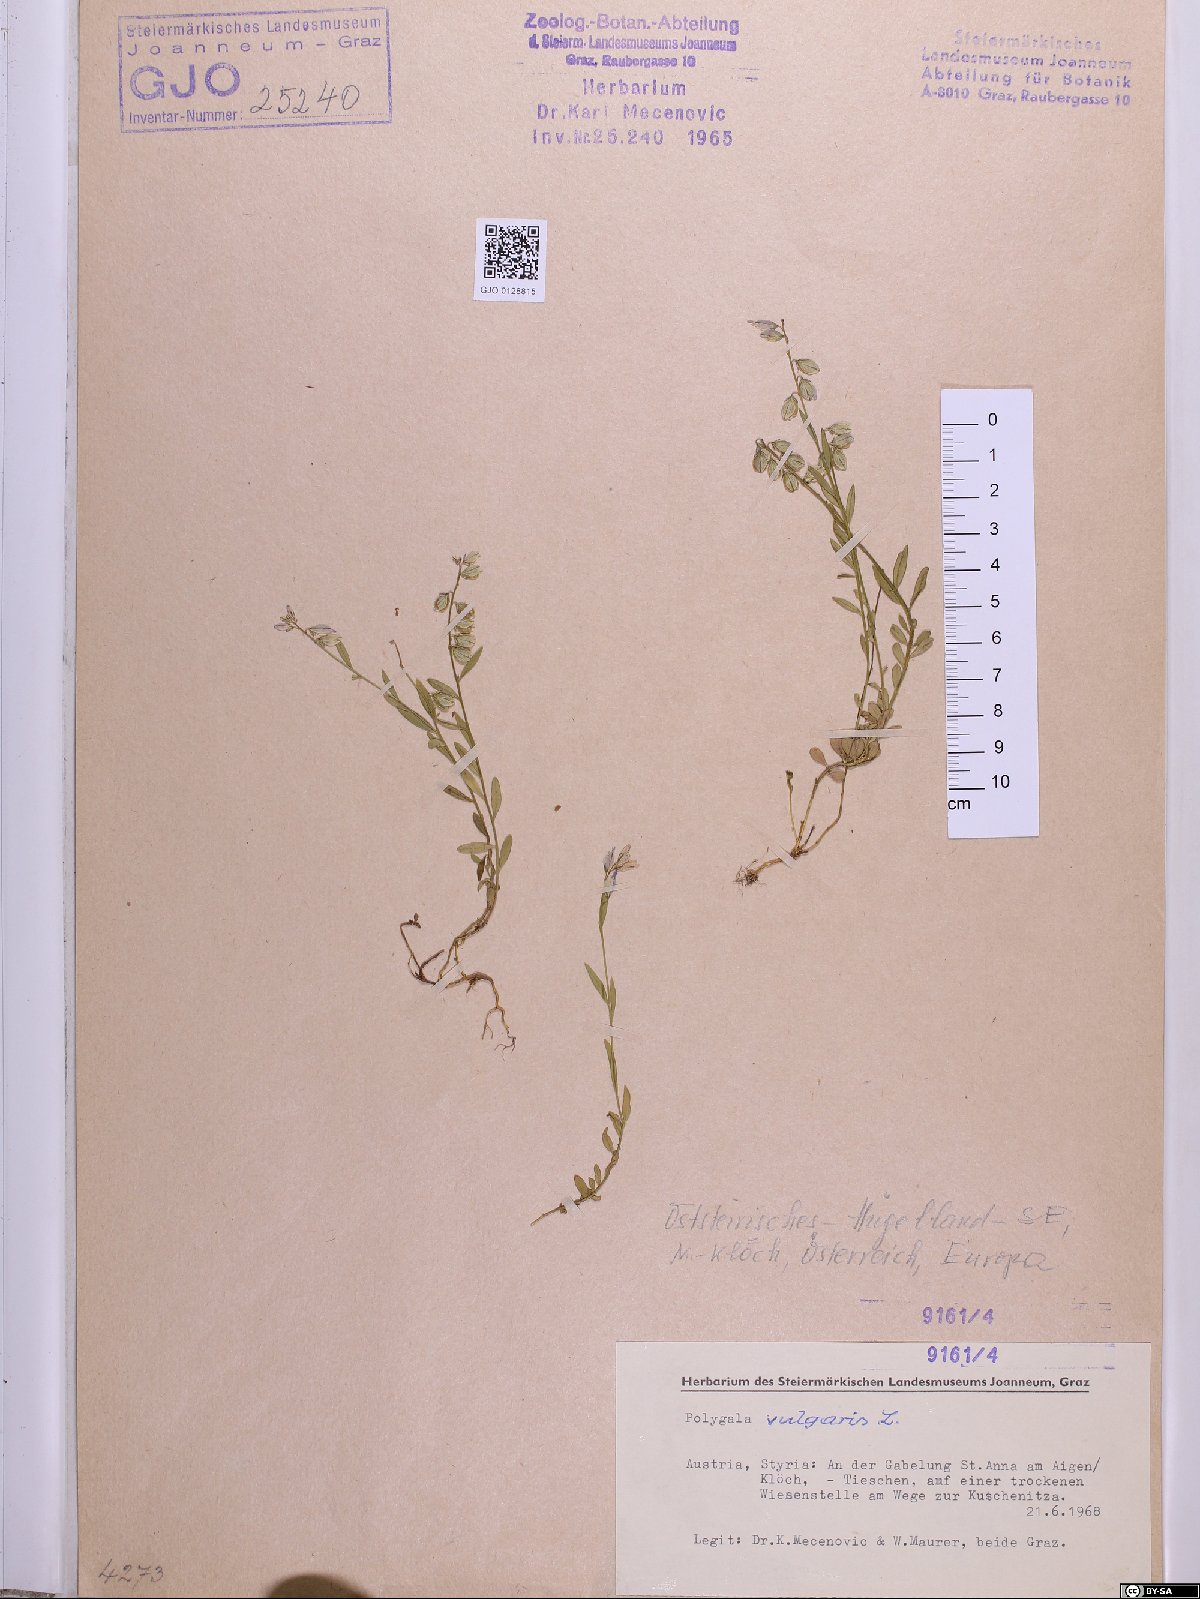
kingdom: Plantae
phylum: Tracheophyta
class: Magnoliopsida
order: Fabales
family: Polygalaceae
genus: Polygala
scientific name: Polygala vulgaris
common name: Common milkwort
